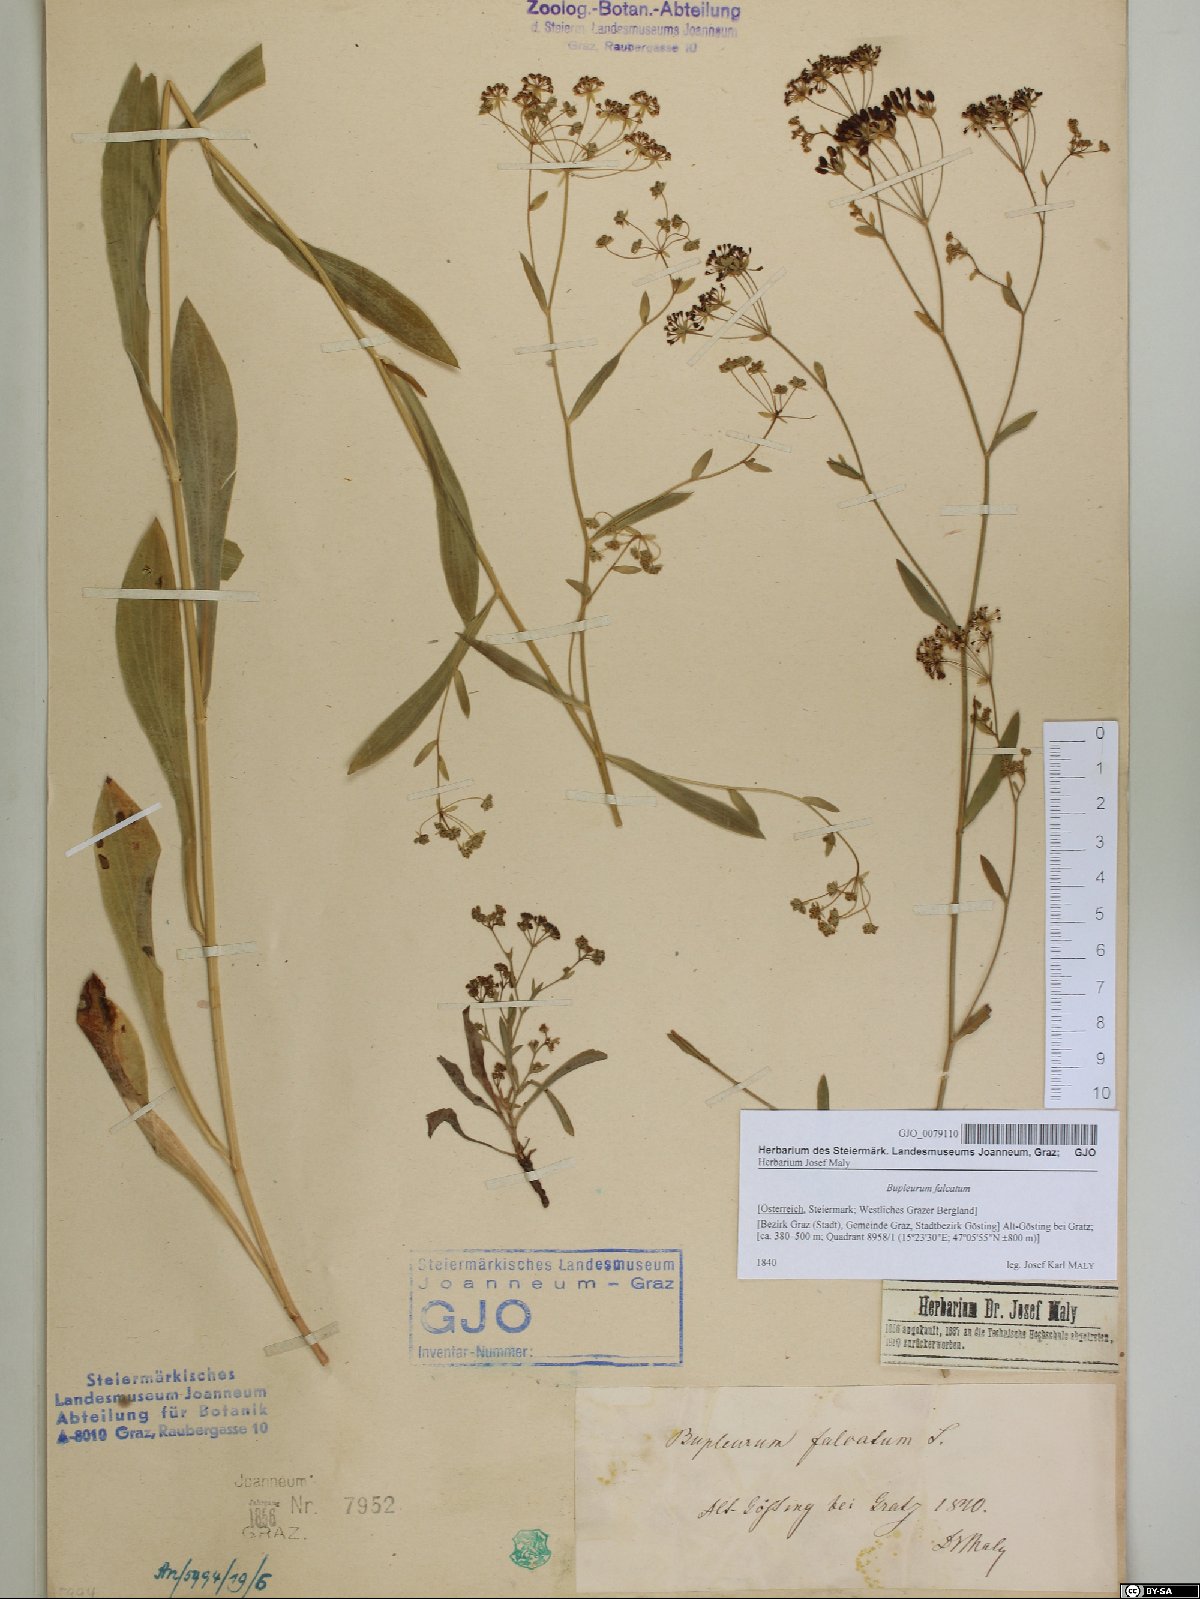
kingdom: Plantae
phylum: Tracheophyta
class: Magnoliopsida
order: Apiales
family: Apiaceae
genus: Bupleurum
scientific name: Bupleurum falcatum
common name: Sickle-leaved hare's-ear
